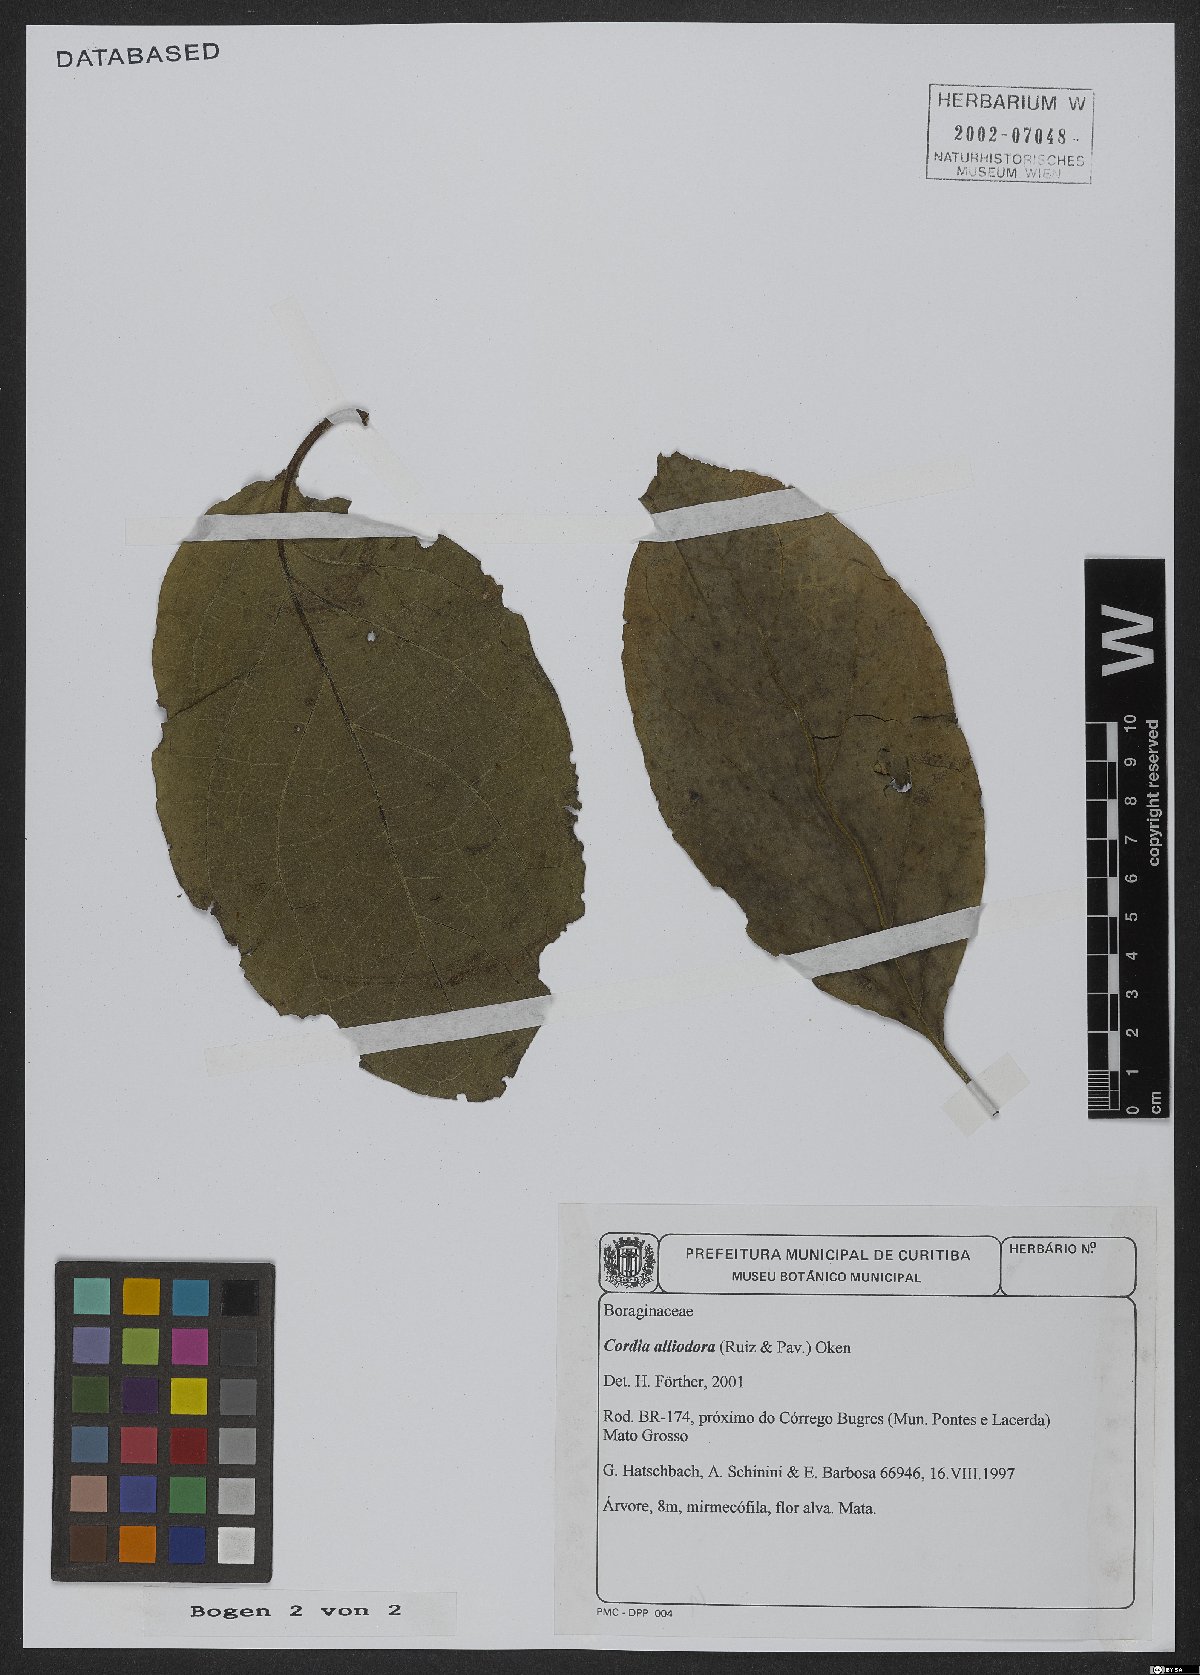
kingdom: Plantae
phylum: Tracheophyta
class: Magnoliopsida
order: Boraginales
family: Cordiaceae
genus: Cordia
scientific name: Cordia alliodora
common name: Spanish elm
